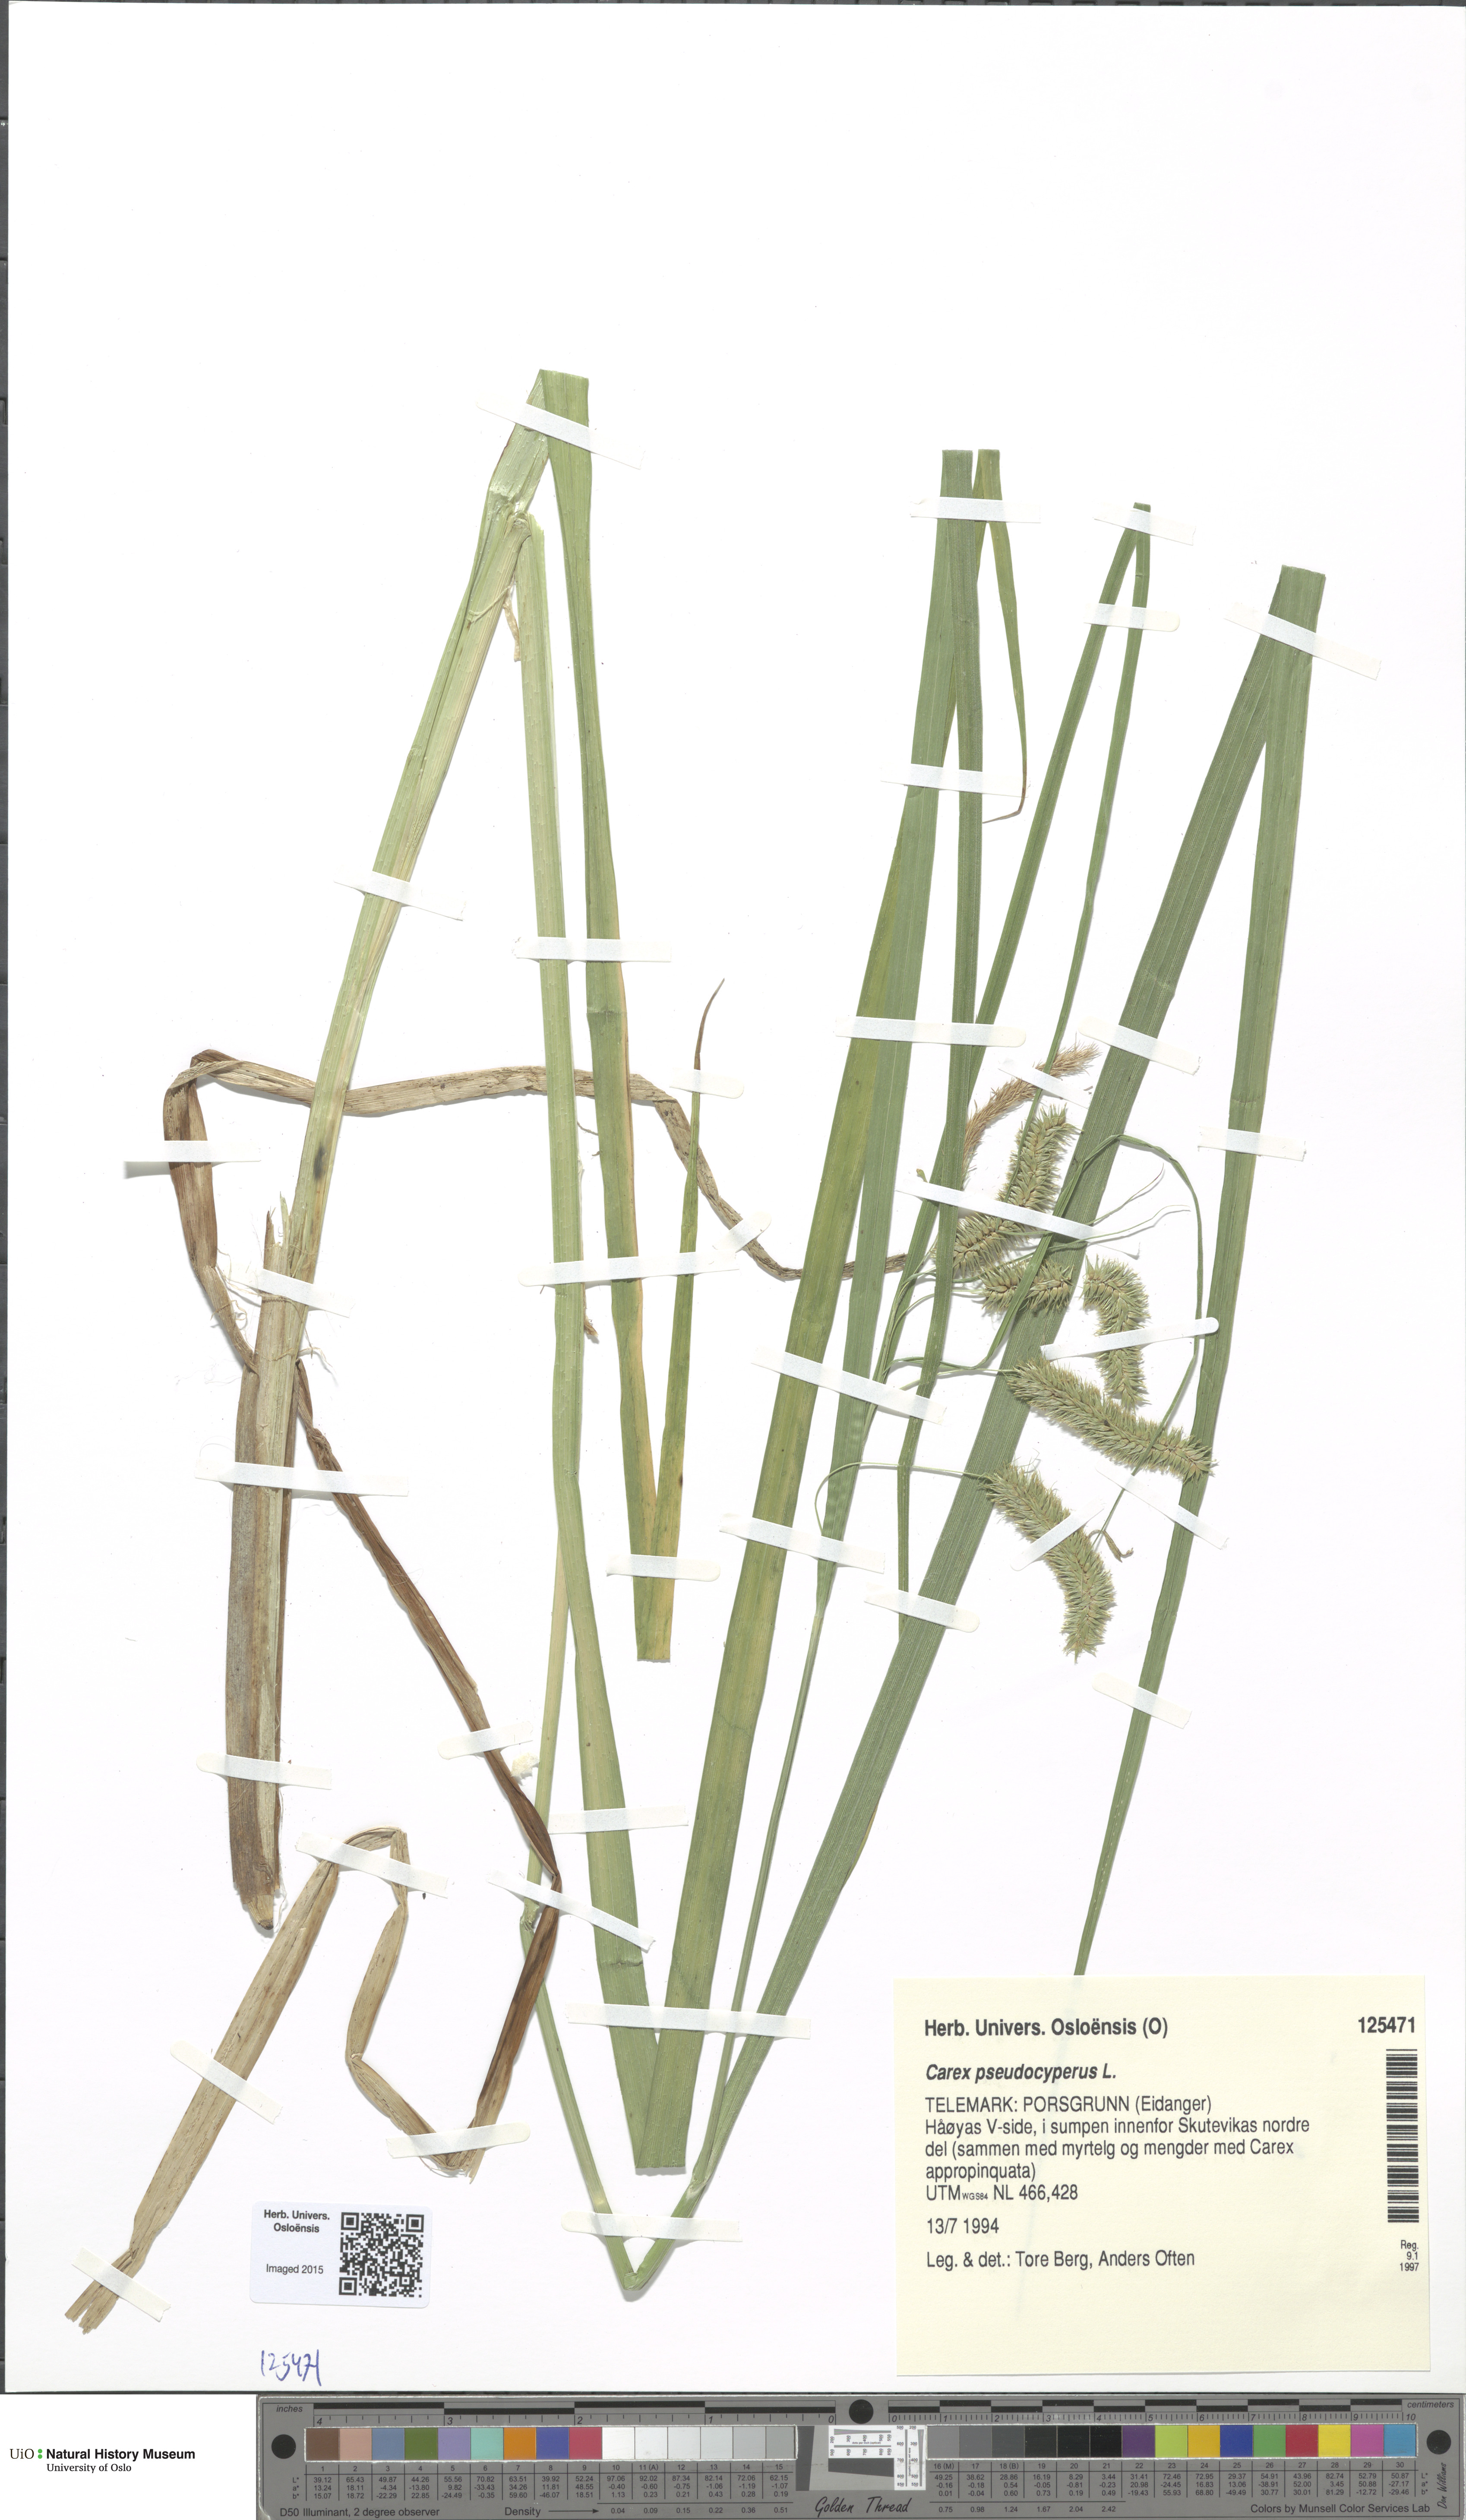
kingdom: Plantae
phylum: Tracheophyta
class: Liliopsida
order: Poales
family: Cyperaceae
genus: Carex
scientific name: Carex pseudocyperus
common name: Cyperus sedge
